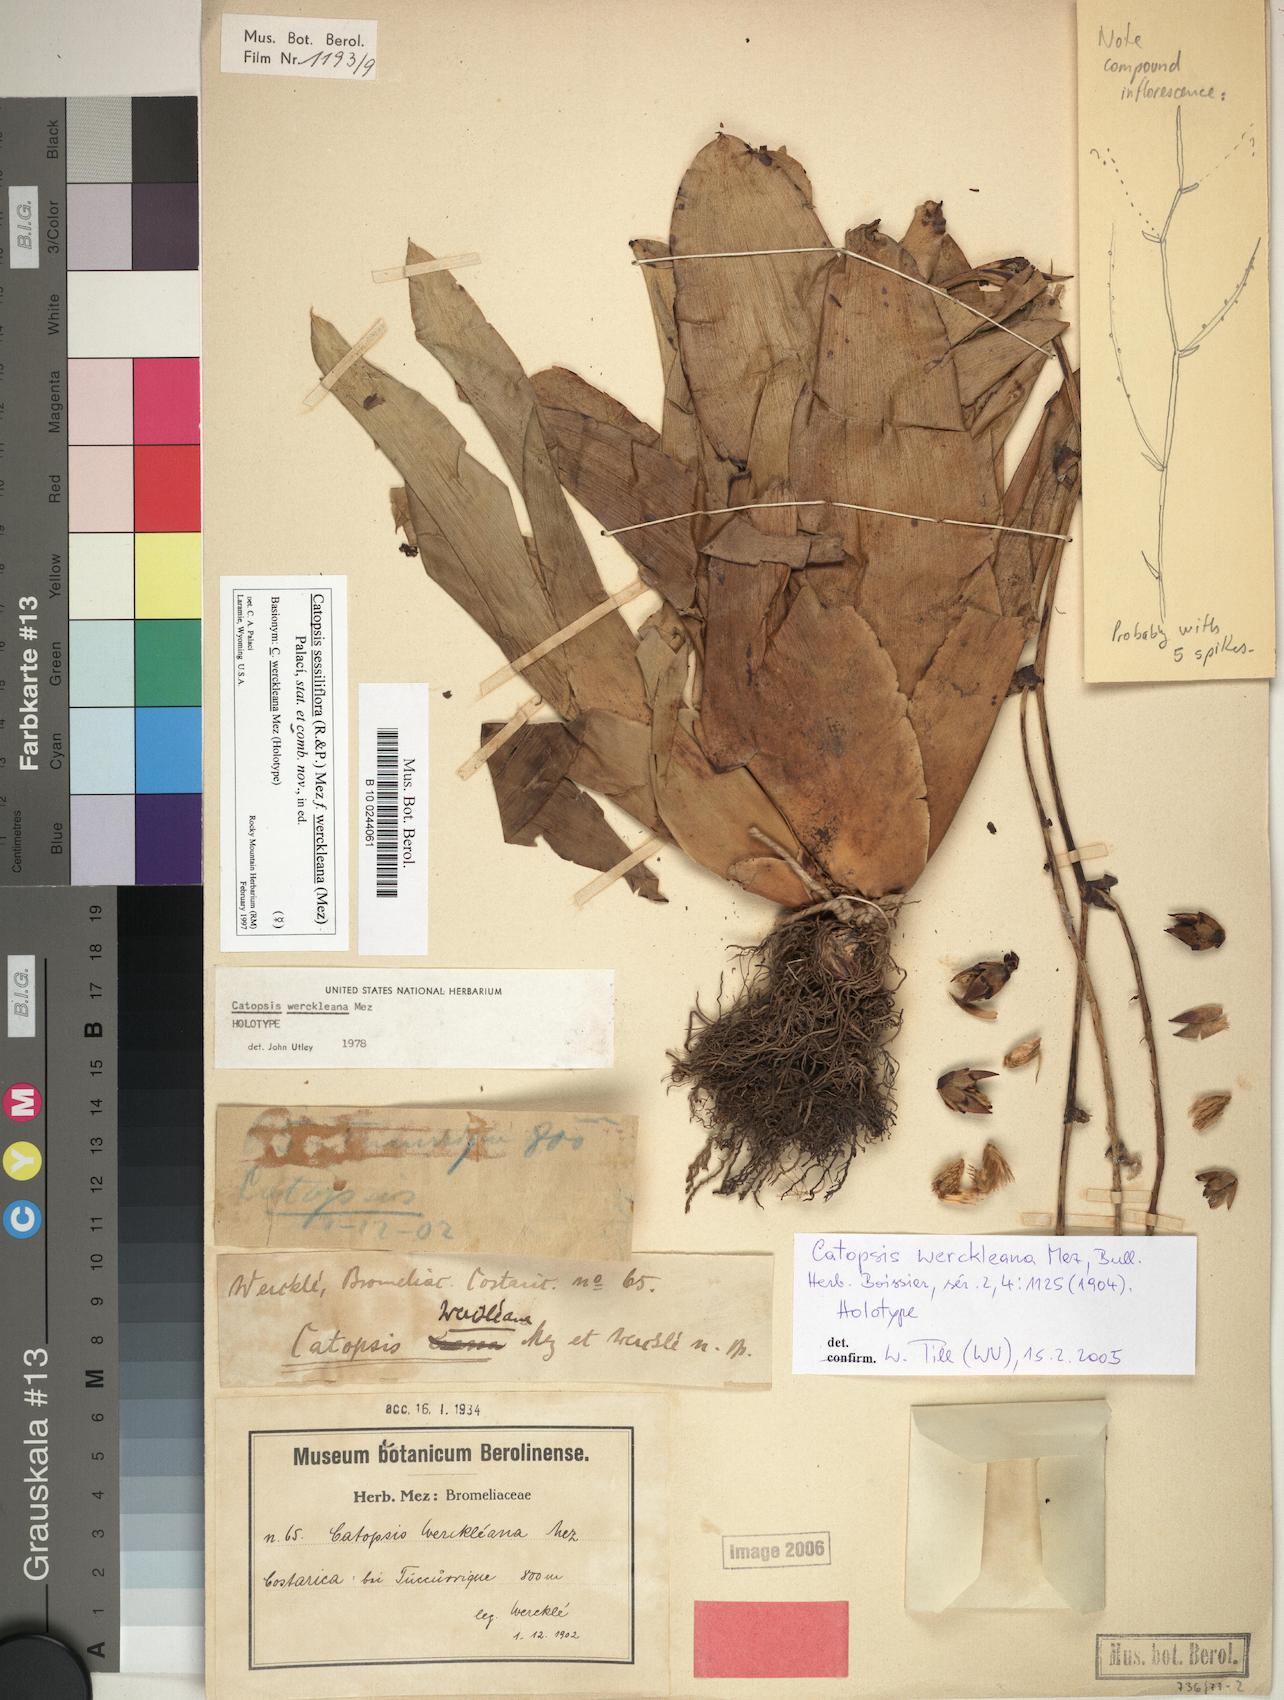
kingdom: Plantae
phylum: Tracheophyta
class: Liliopsida
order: Poales
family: Bromeliaceae
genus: Catopsis
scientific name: Catopsis werckleana
